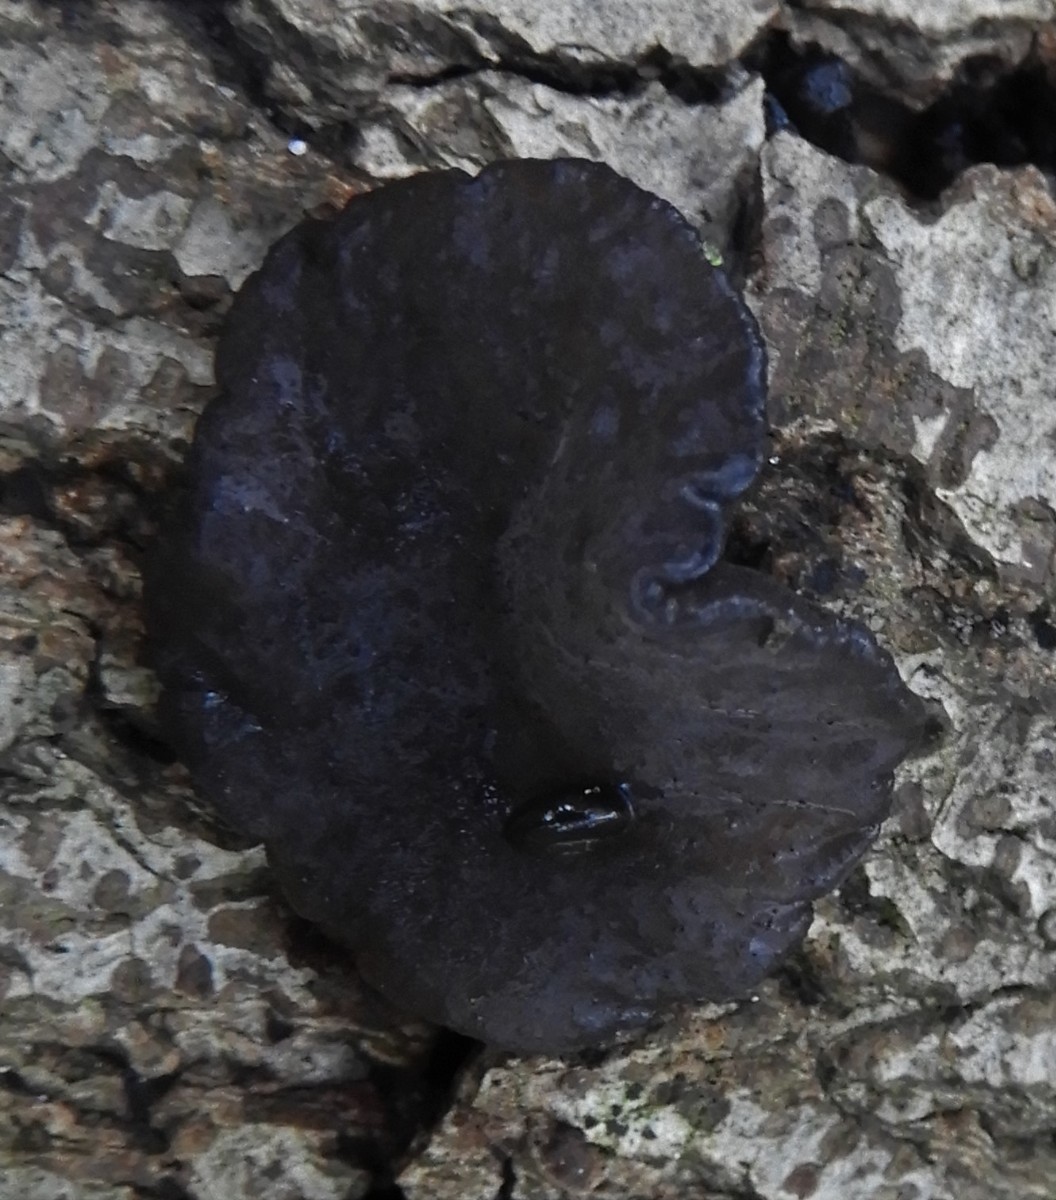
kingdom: Fungi
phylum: Ascomycota
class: Leotiomycetes
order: Phacidiales
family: Phacidiaceae
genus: Bulgaria
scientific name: Bulgaria inquinans
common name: afsmittende topsvamp
